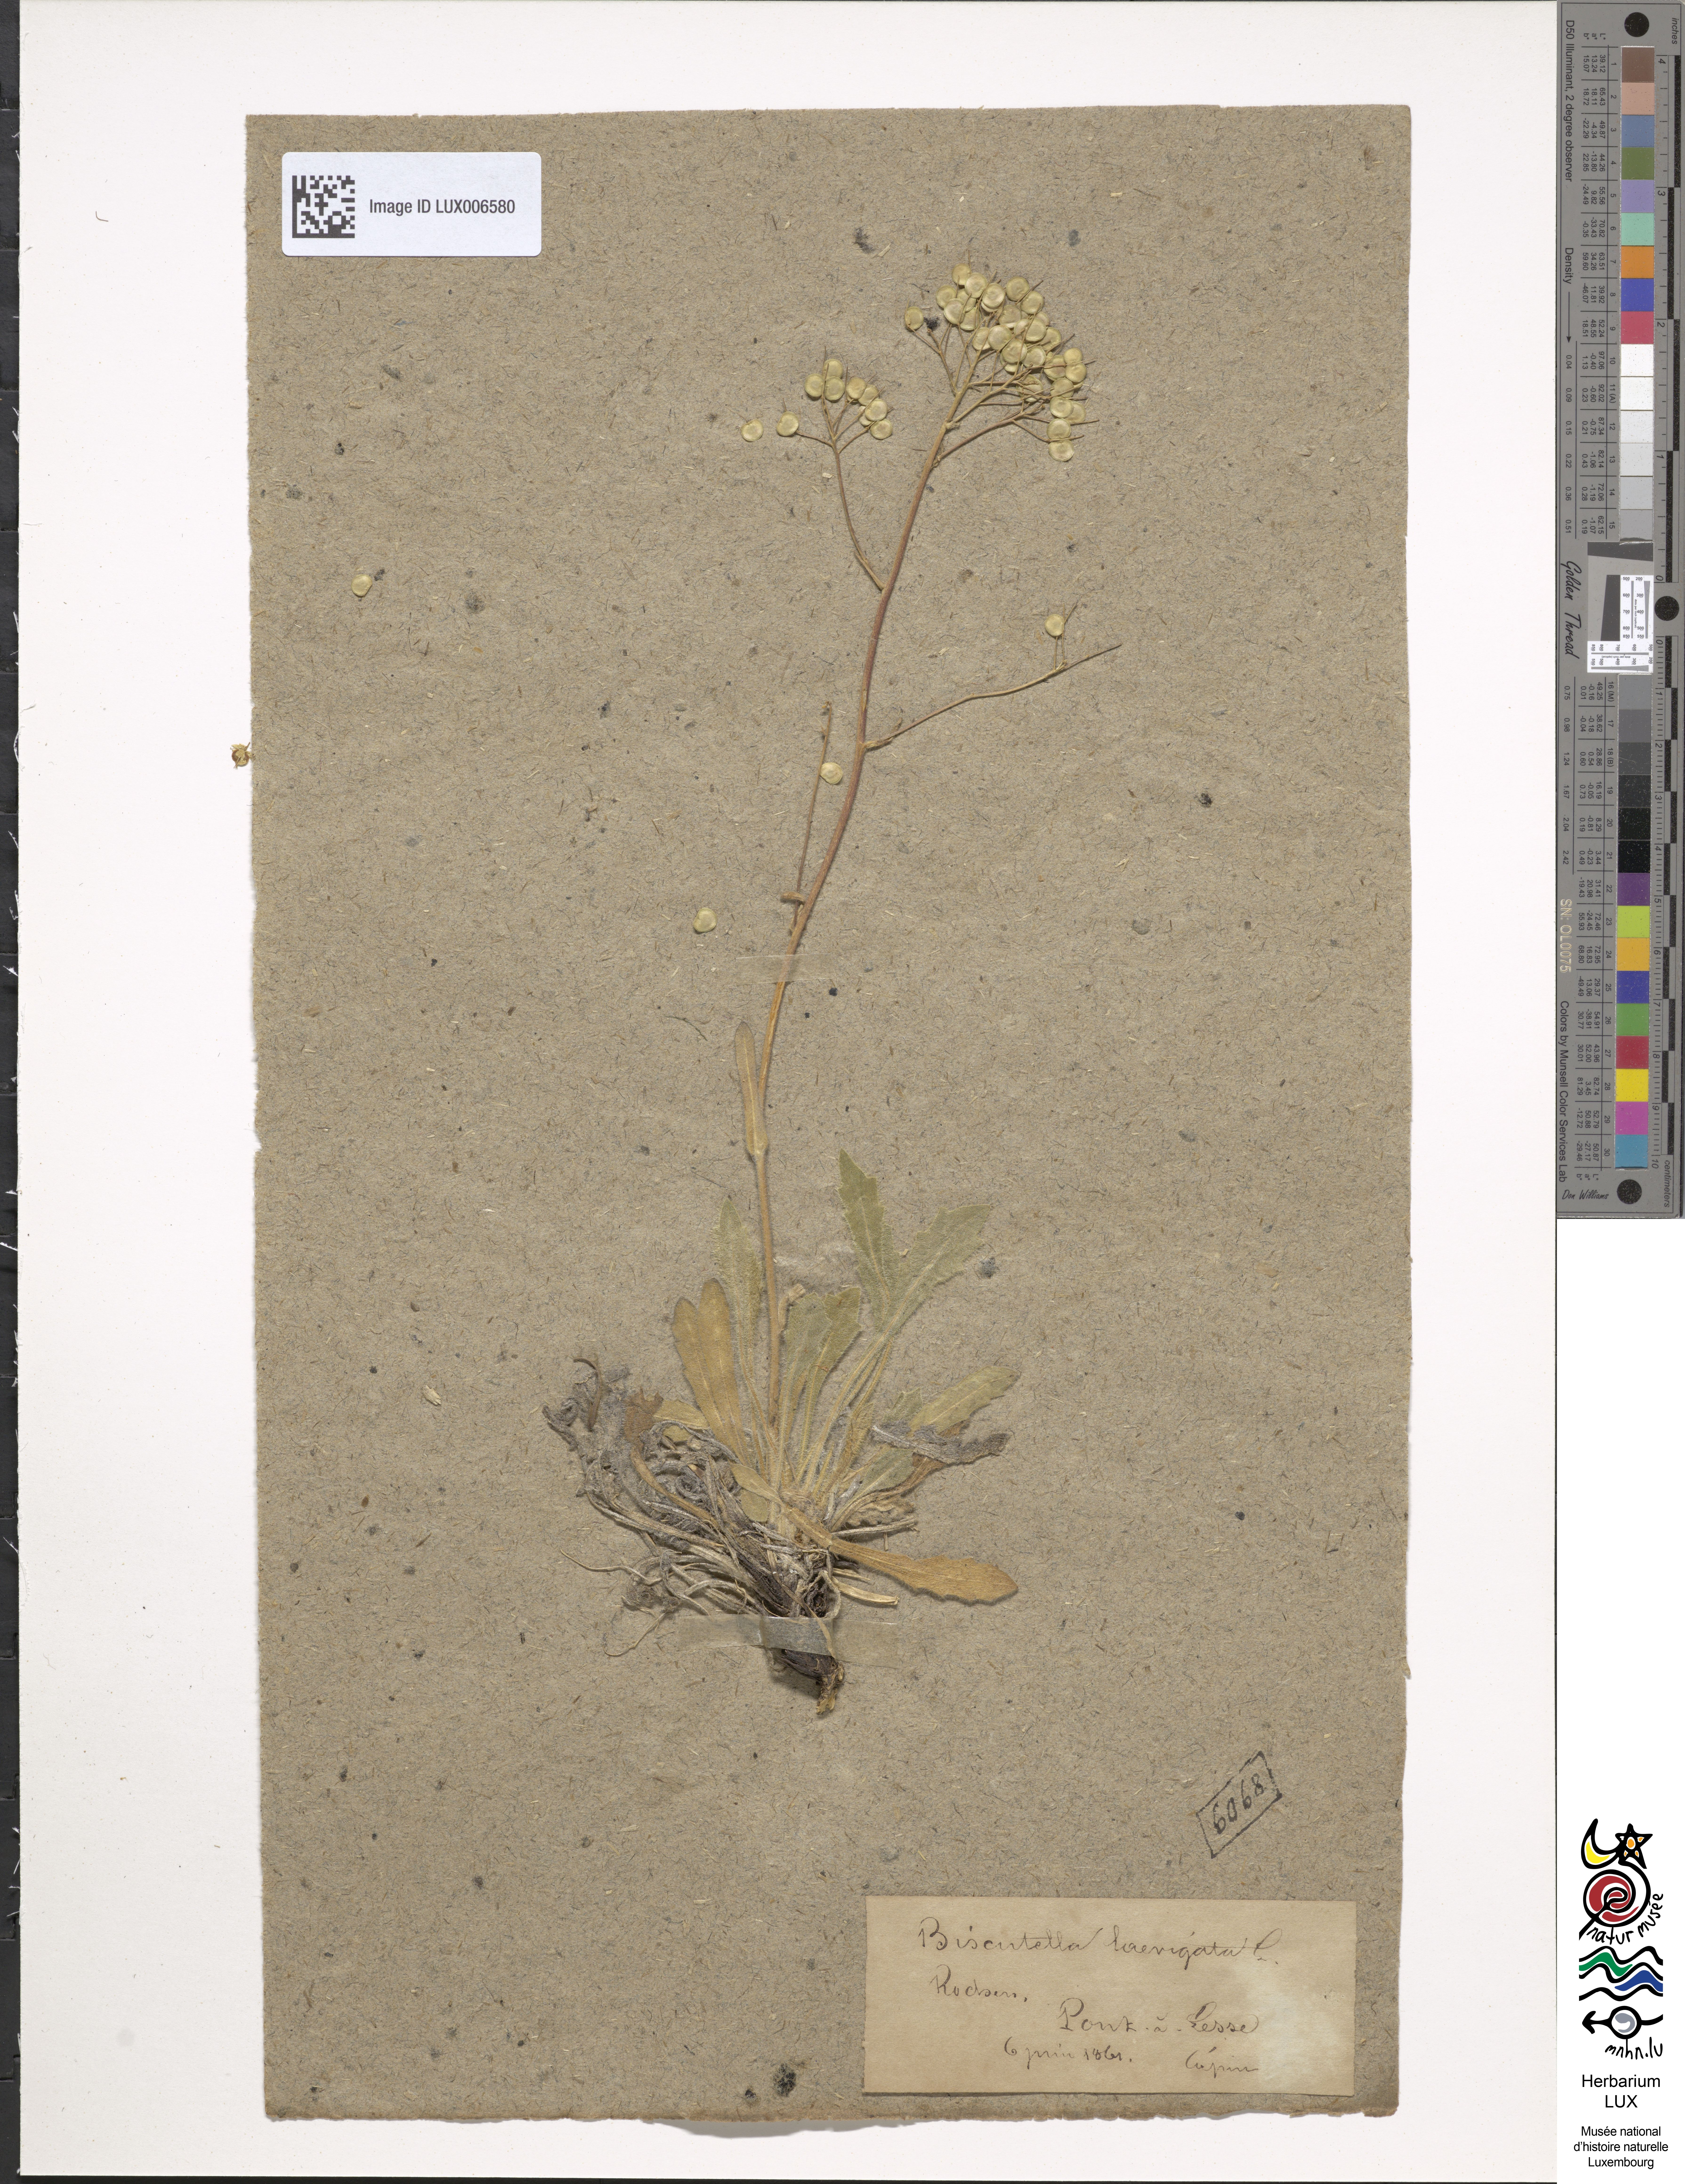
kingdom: Plantae
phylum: Tracheophyta
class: Magnoliopsida
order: Brassicales
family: Brassicaceae
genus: Biscutella
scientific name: Biscutella laevigata
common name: Buckler mustard
